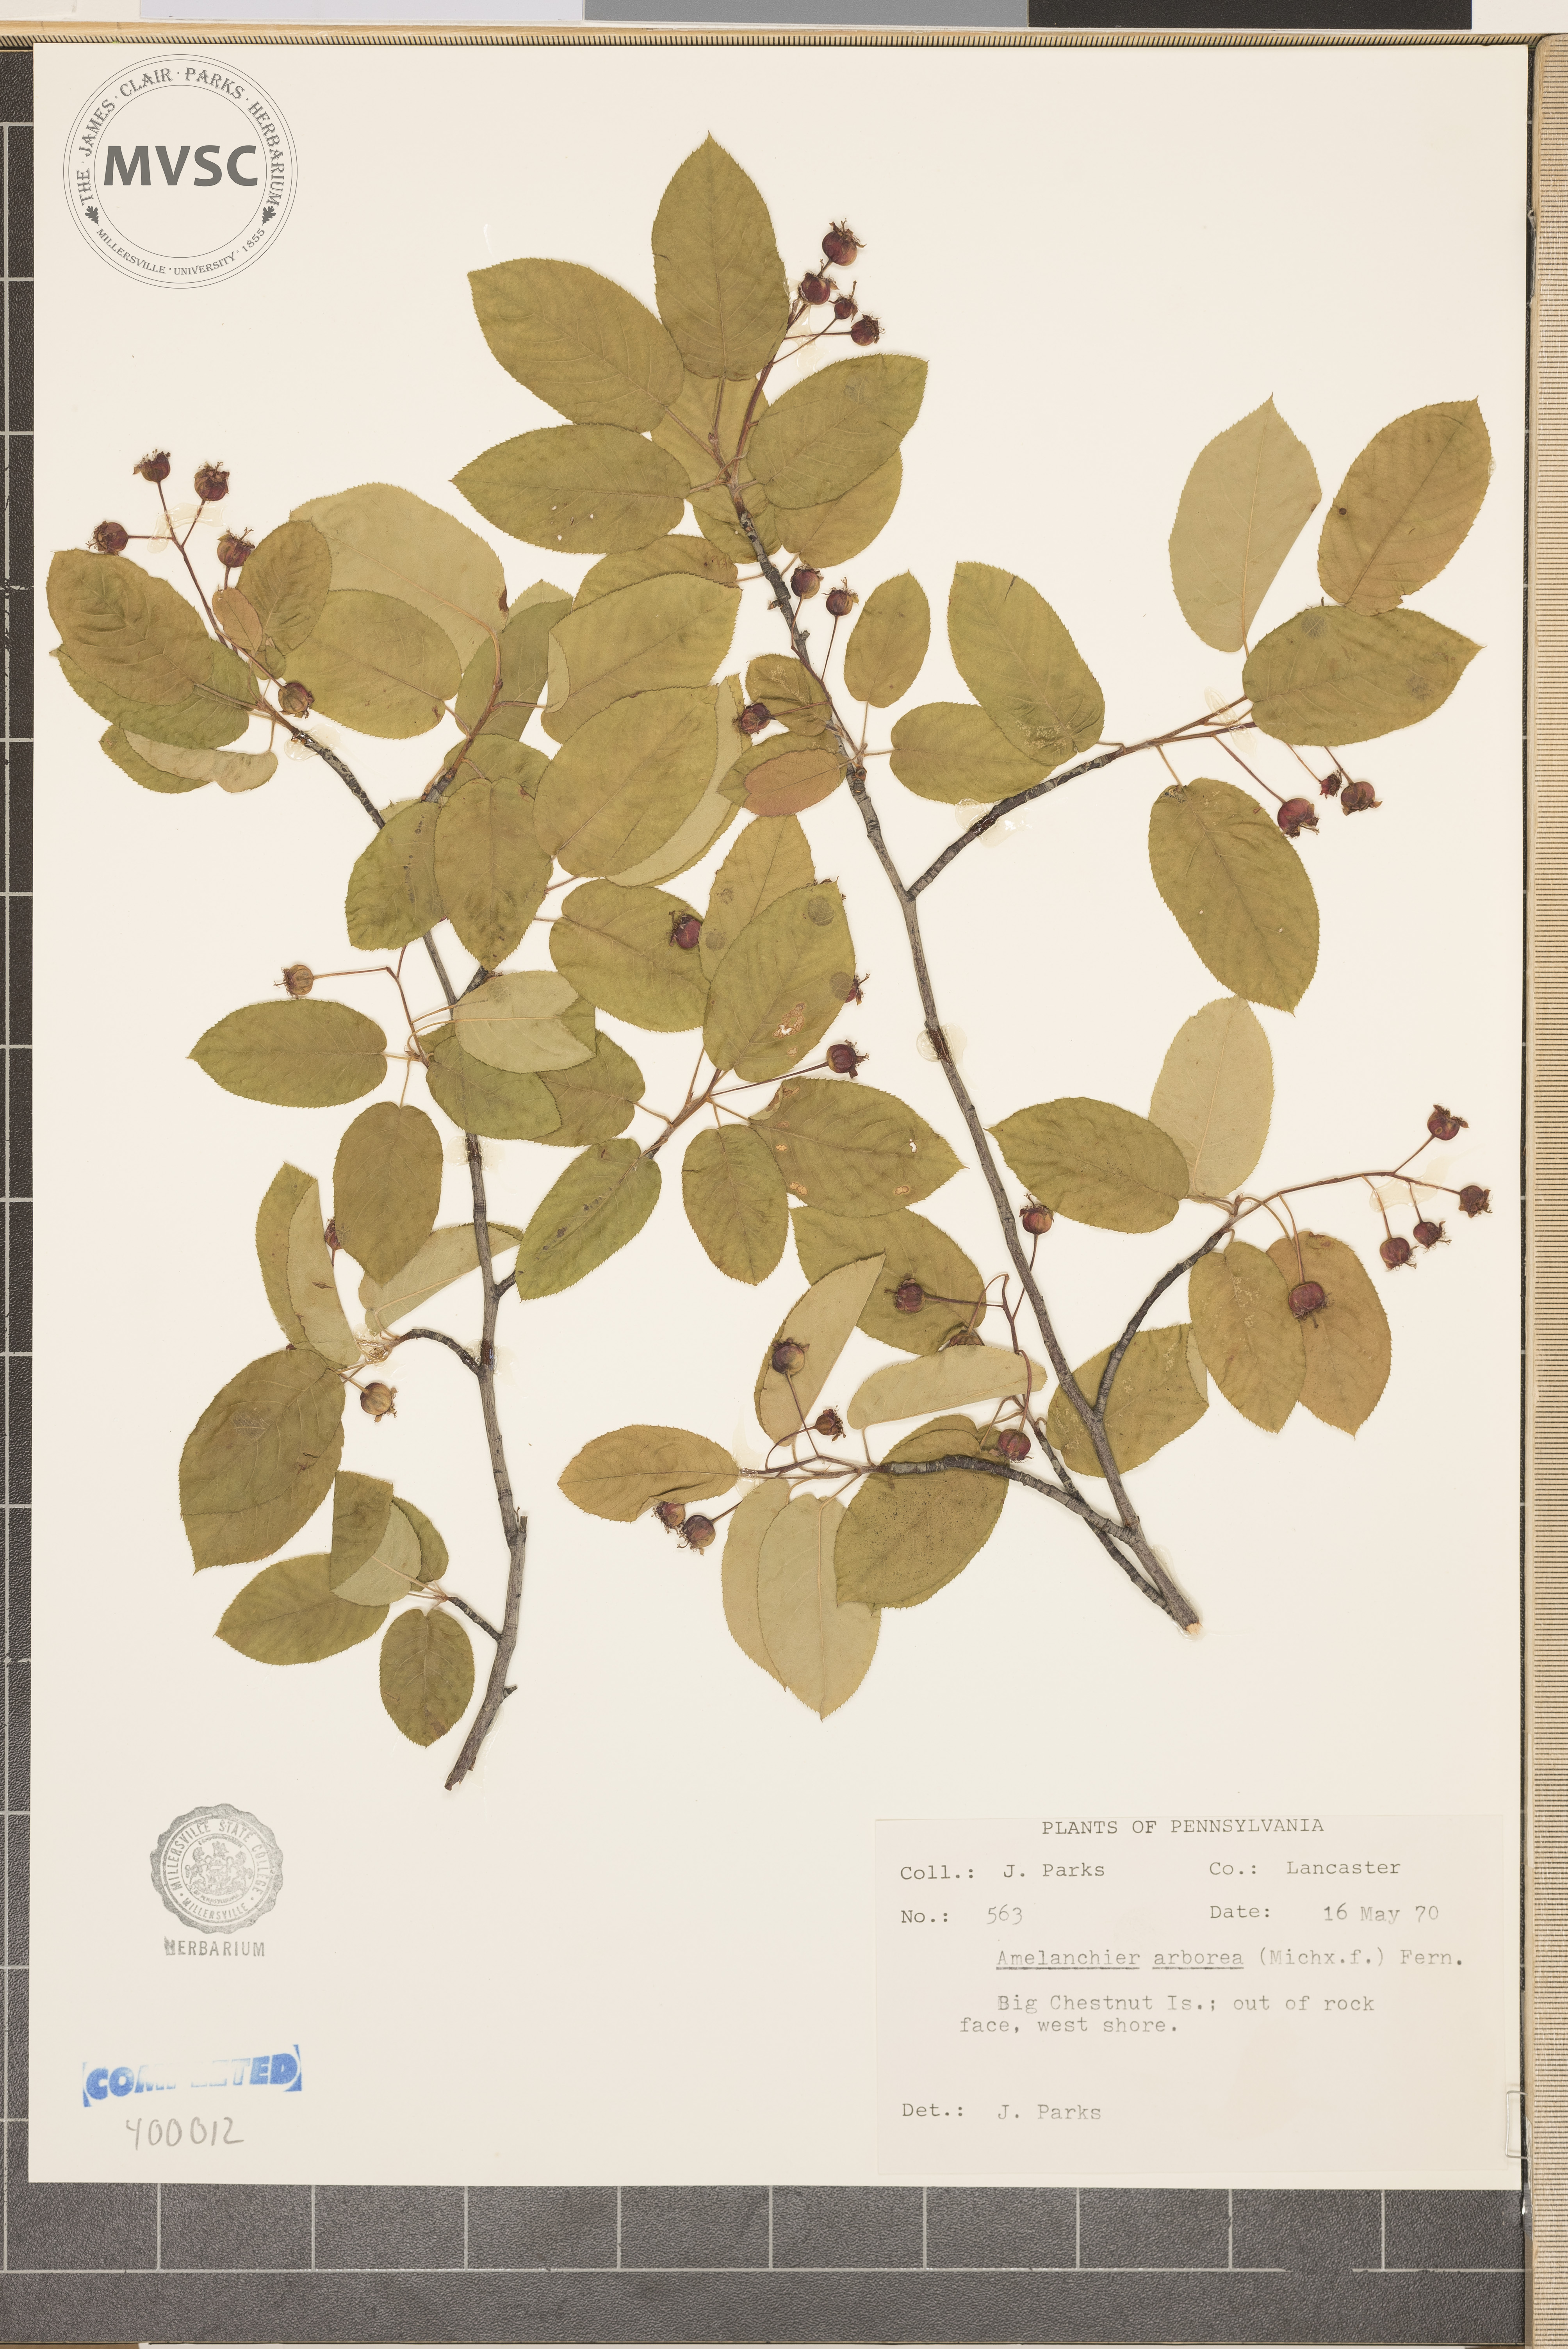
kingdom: Plantae
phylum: Tracheophyta
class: Magnoliopsida
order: Rosales
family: Rosaceae
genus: Amelanchier
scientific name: Amelanchier arborea
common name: serviceberry
